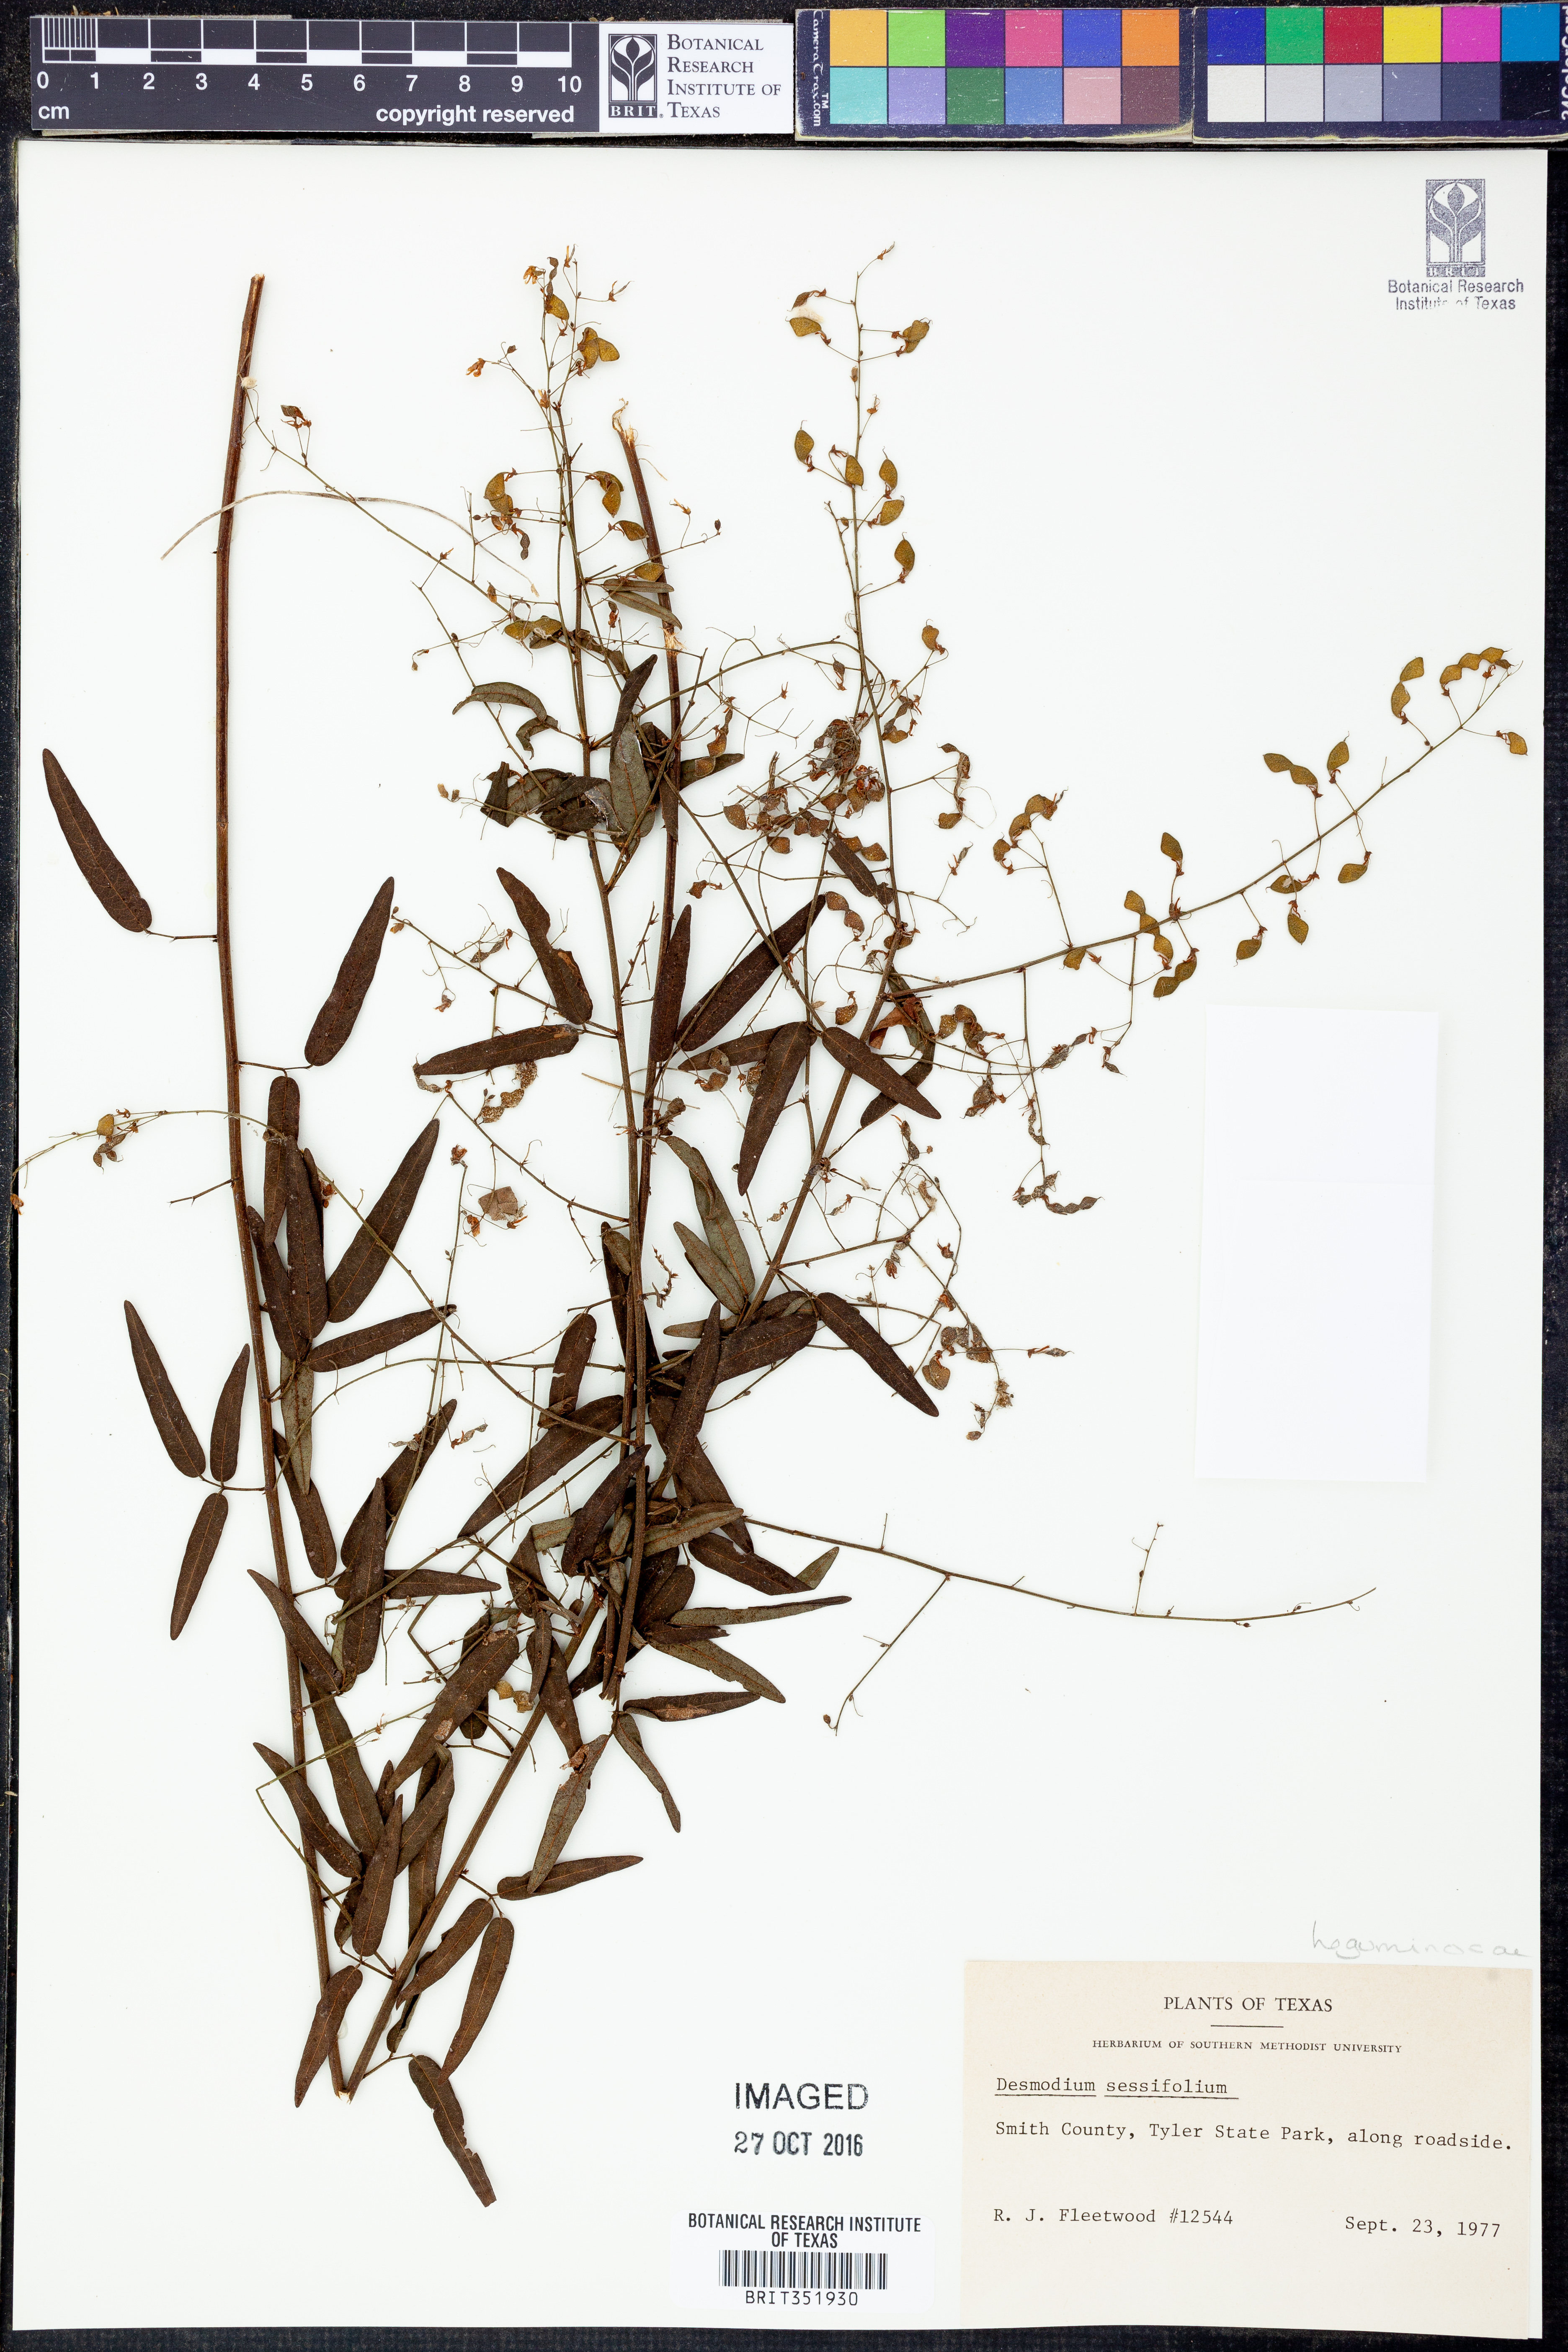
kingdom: Plantae
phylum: Tracheophyta
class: Magnoliopsida
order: Fabales
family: Fabaceae
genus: Desmodium
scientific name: Desmodium sessilifolium
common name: Sessile tick-clover
